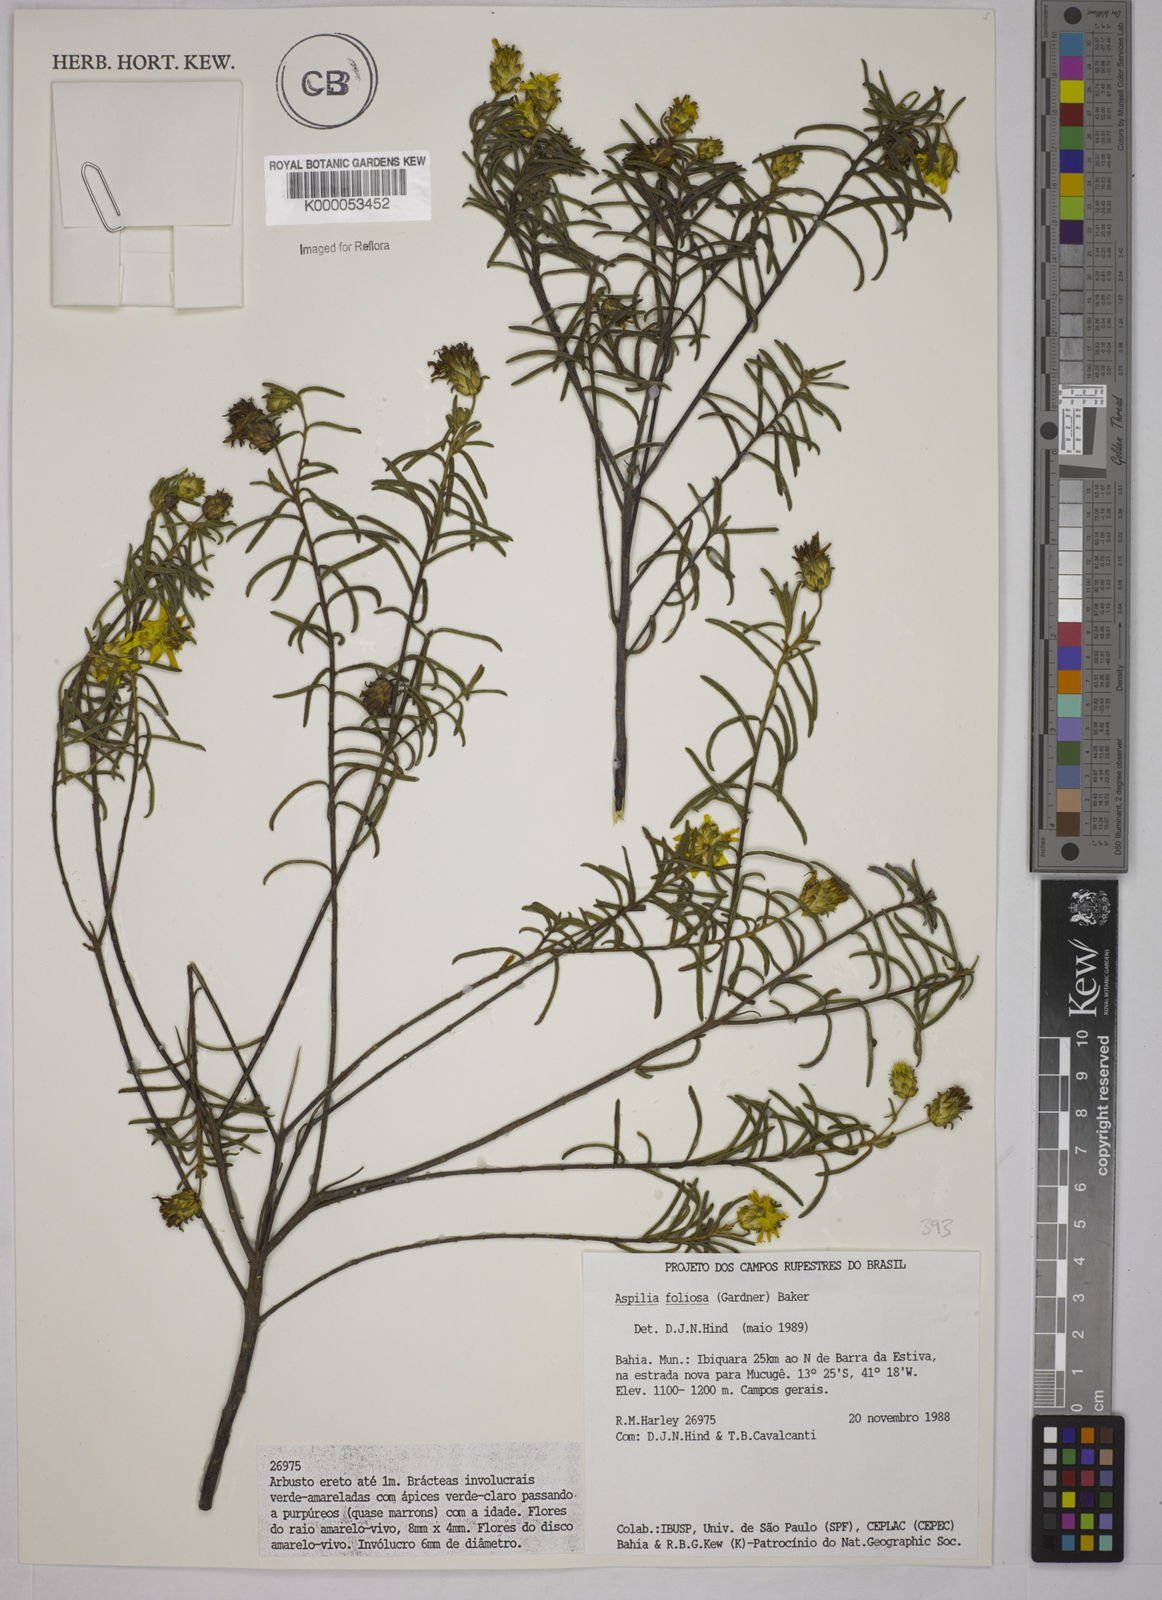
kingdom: Plantae
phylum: Tracheophyta
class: Magnoliopsida
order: Asterales
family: Asteraceae
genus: Aspilia
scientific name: Aspilia
